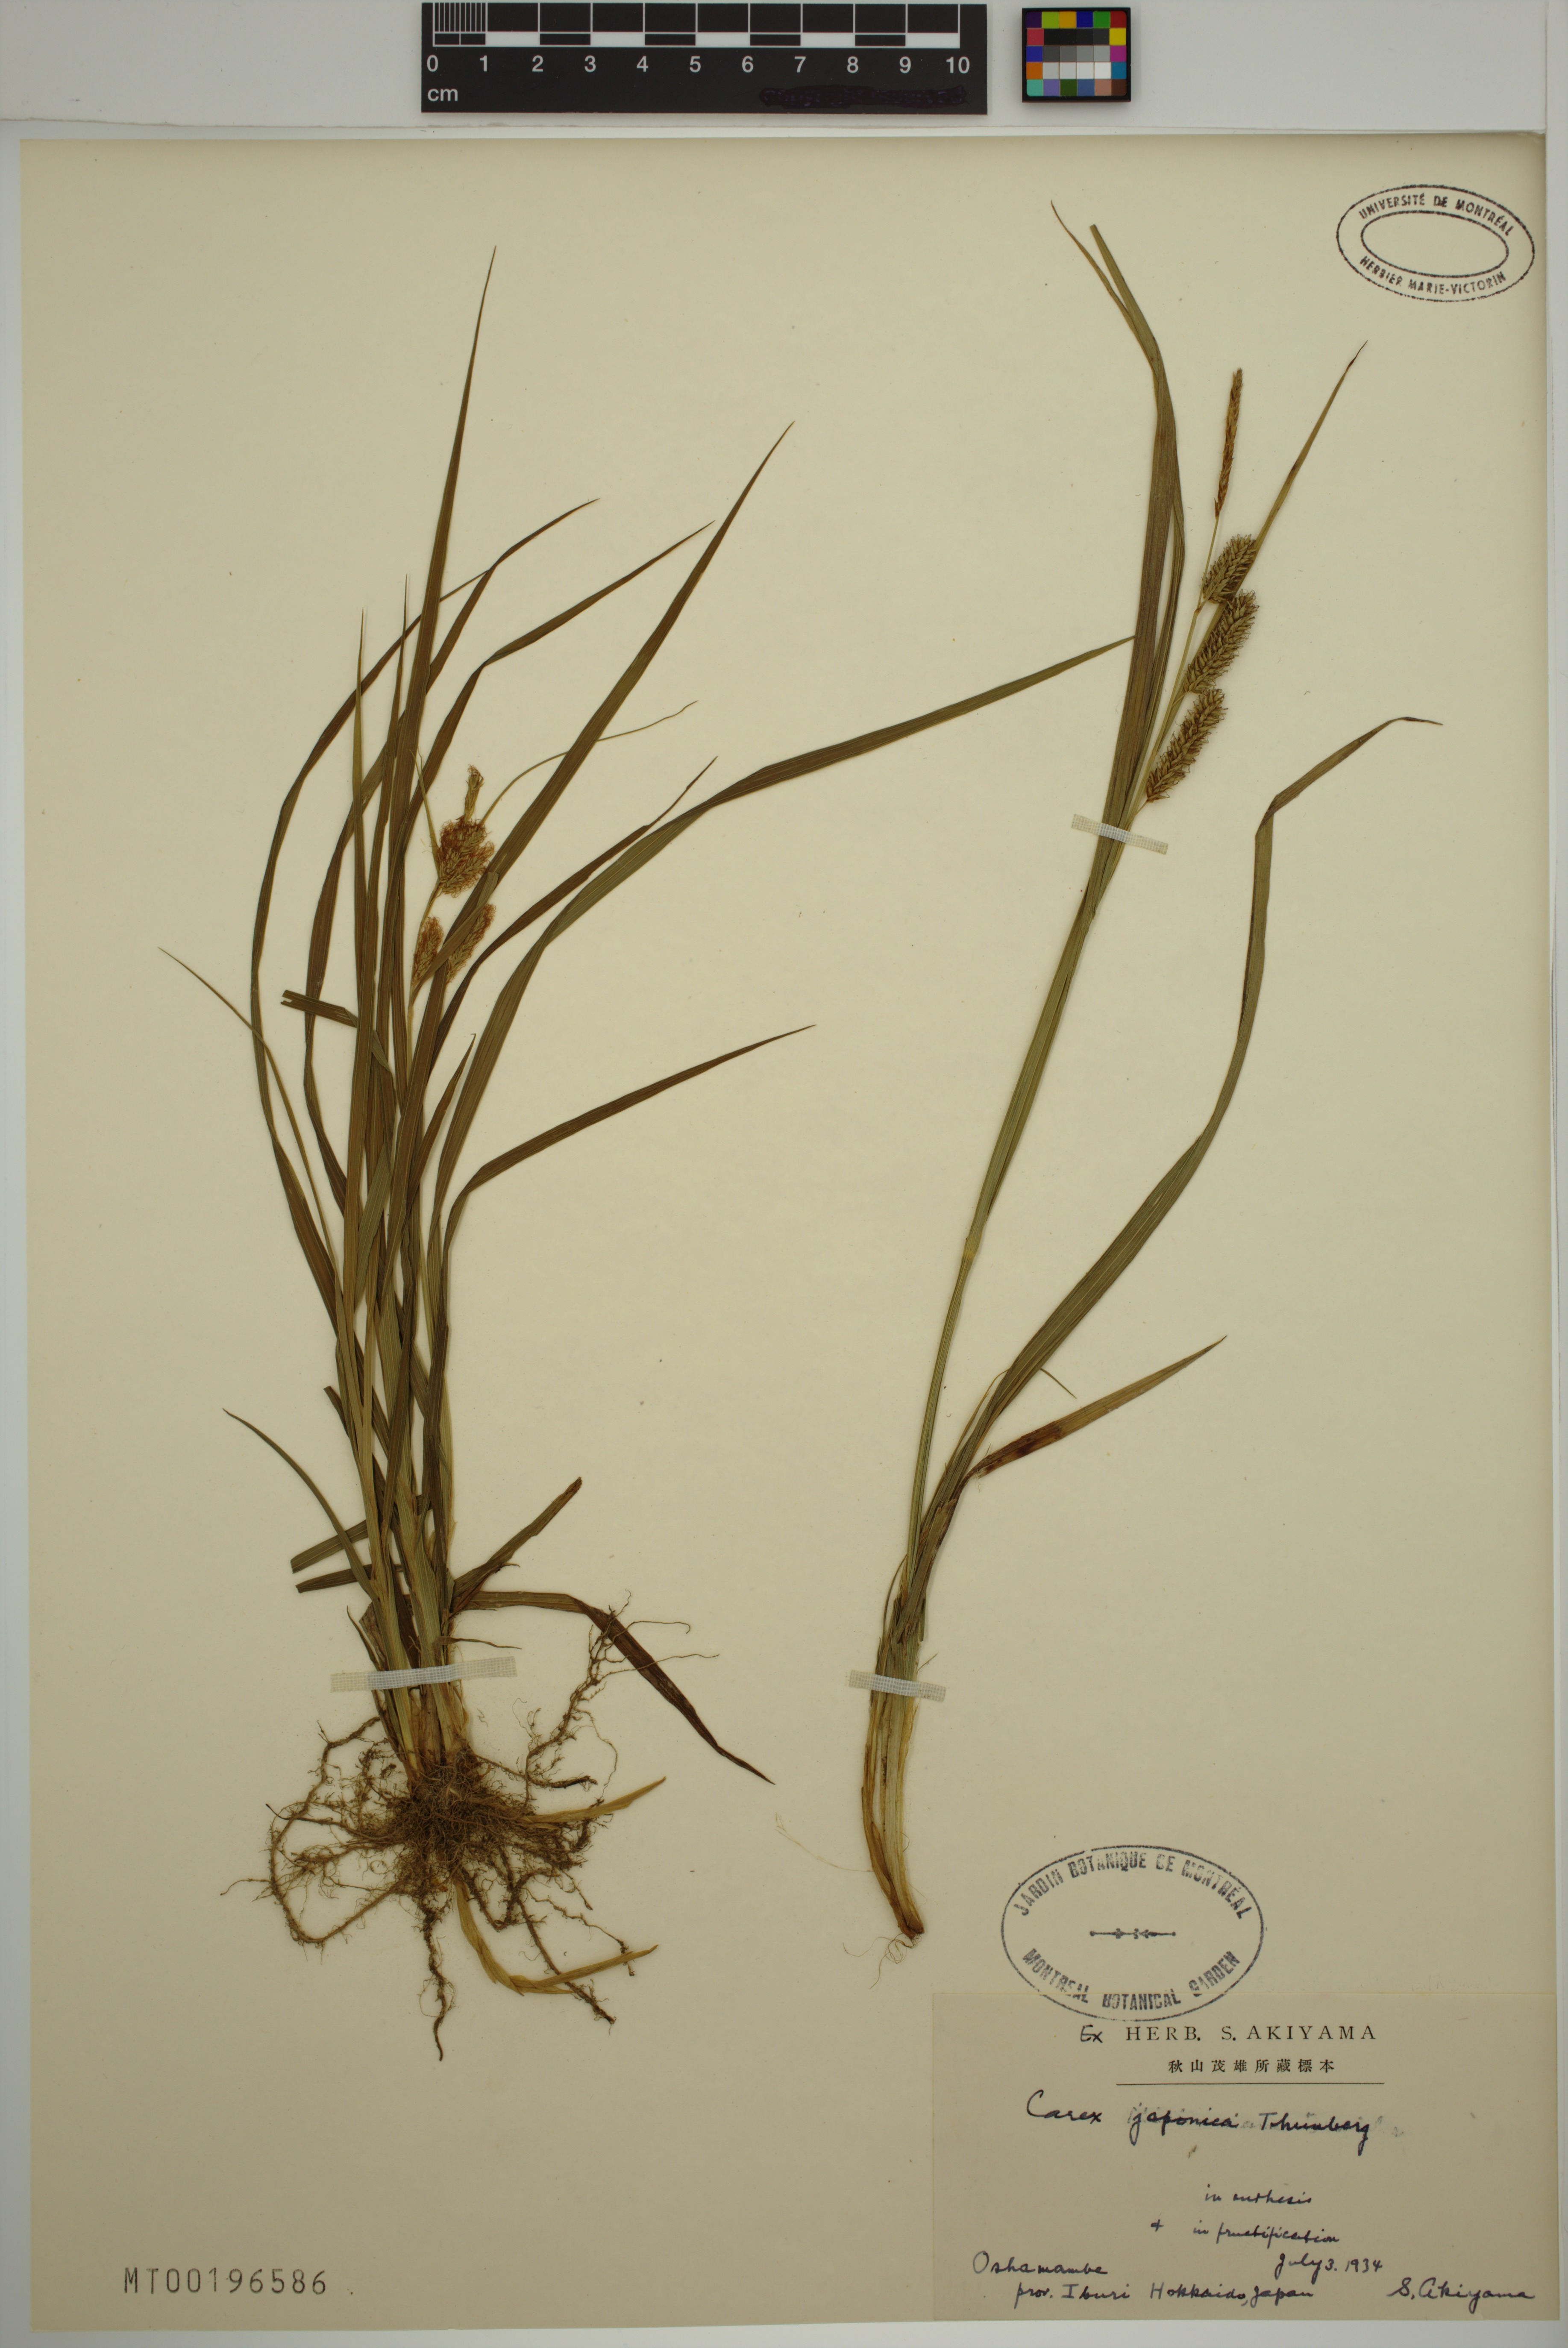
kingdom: Plantae
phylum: Tracheophyta
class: Liliopsida
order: Poales
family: Cyperaceae
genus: Carex
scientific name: Carex japonica
